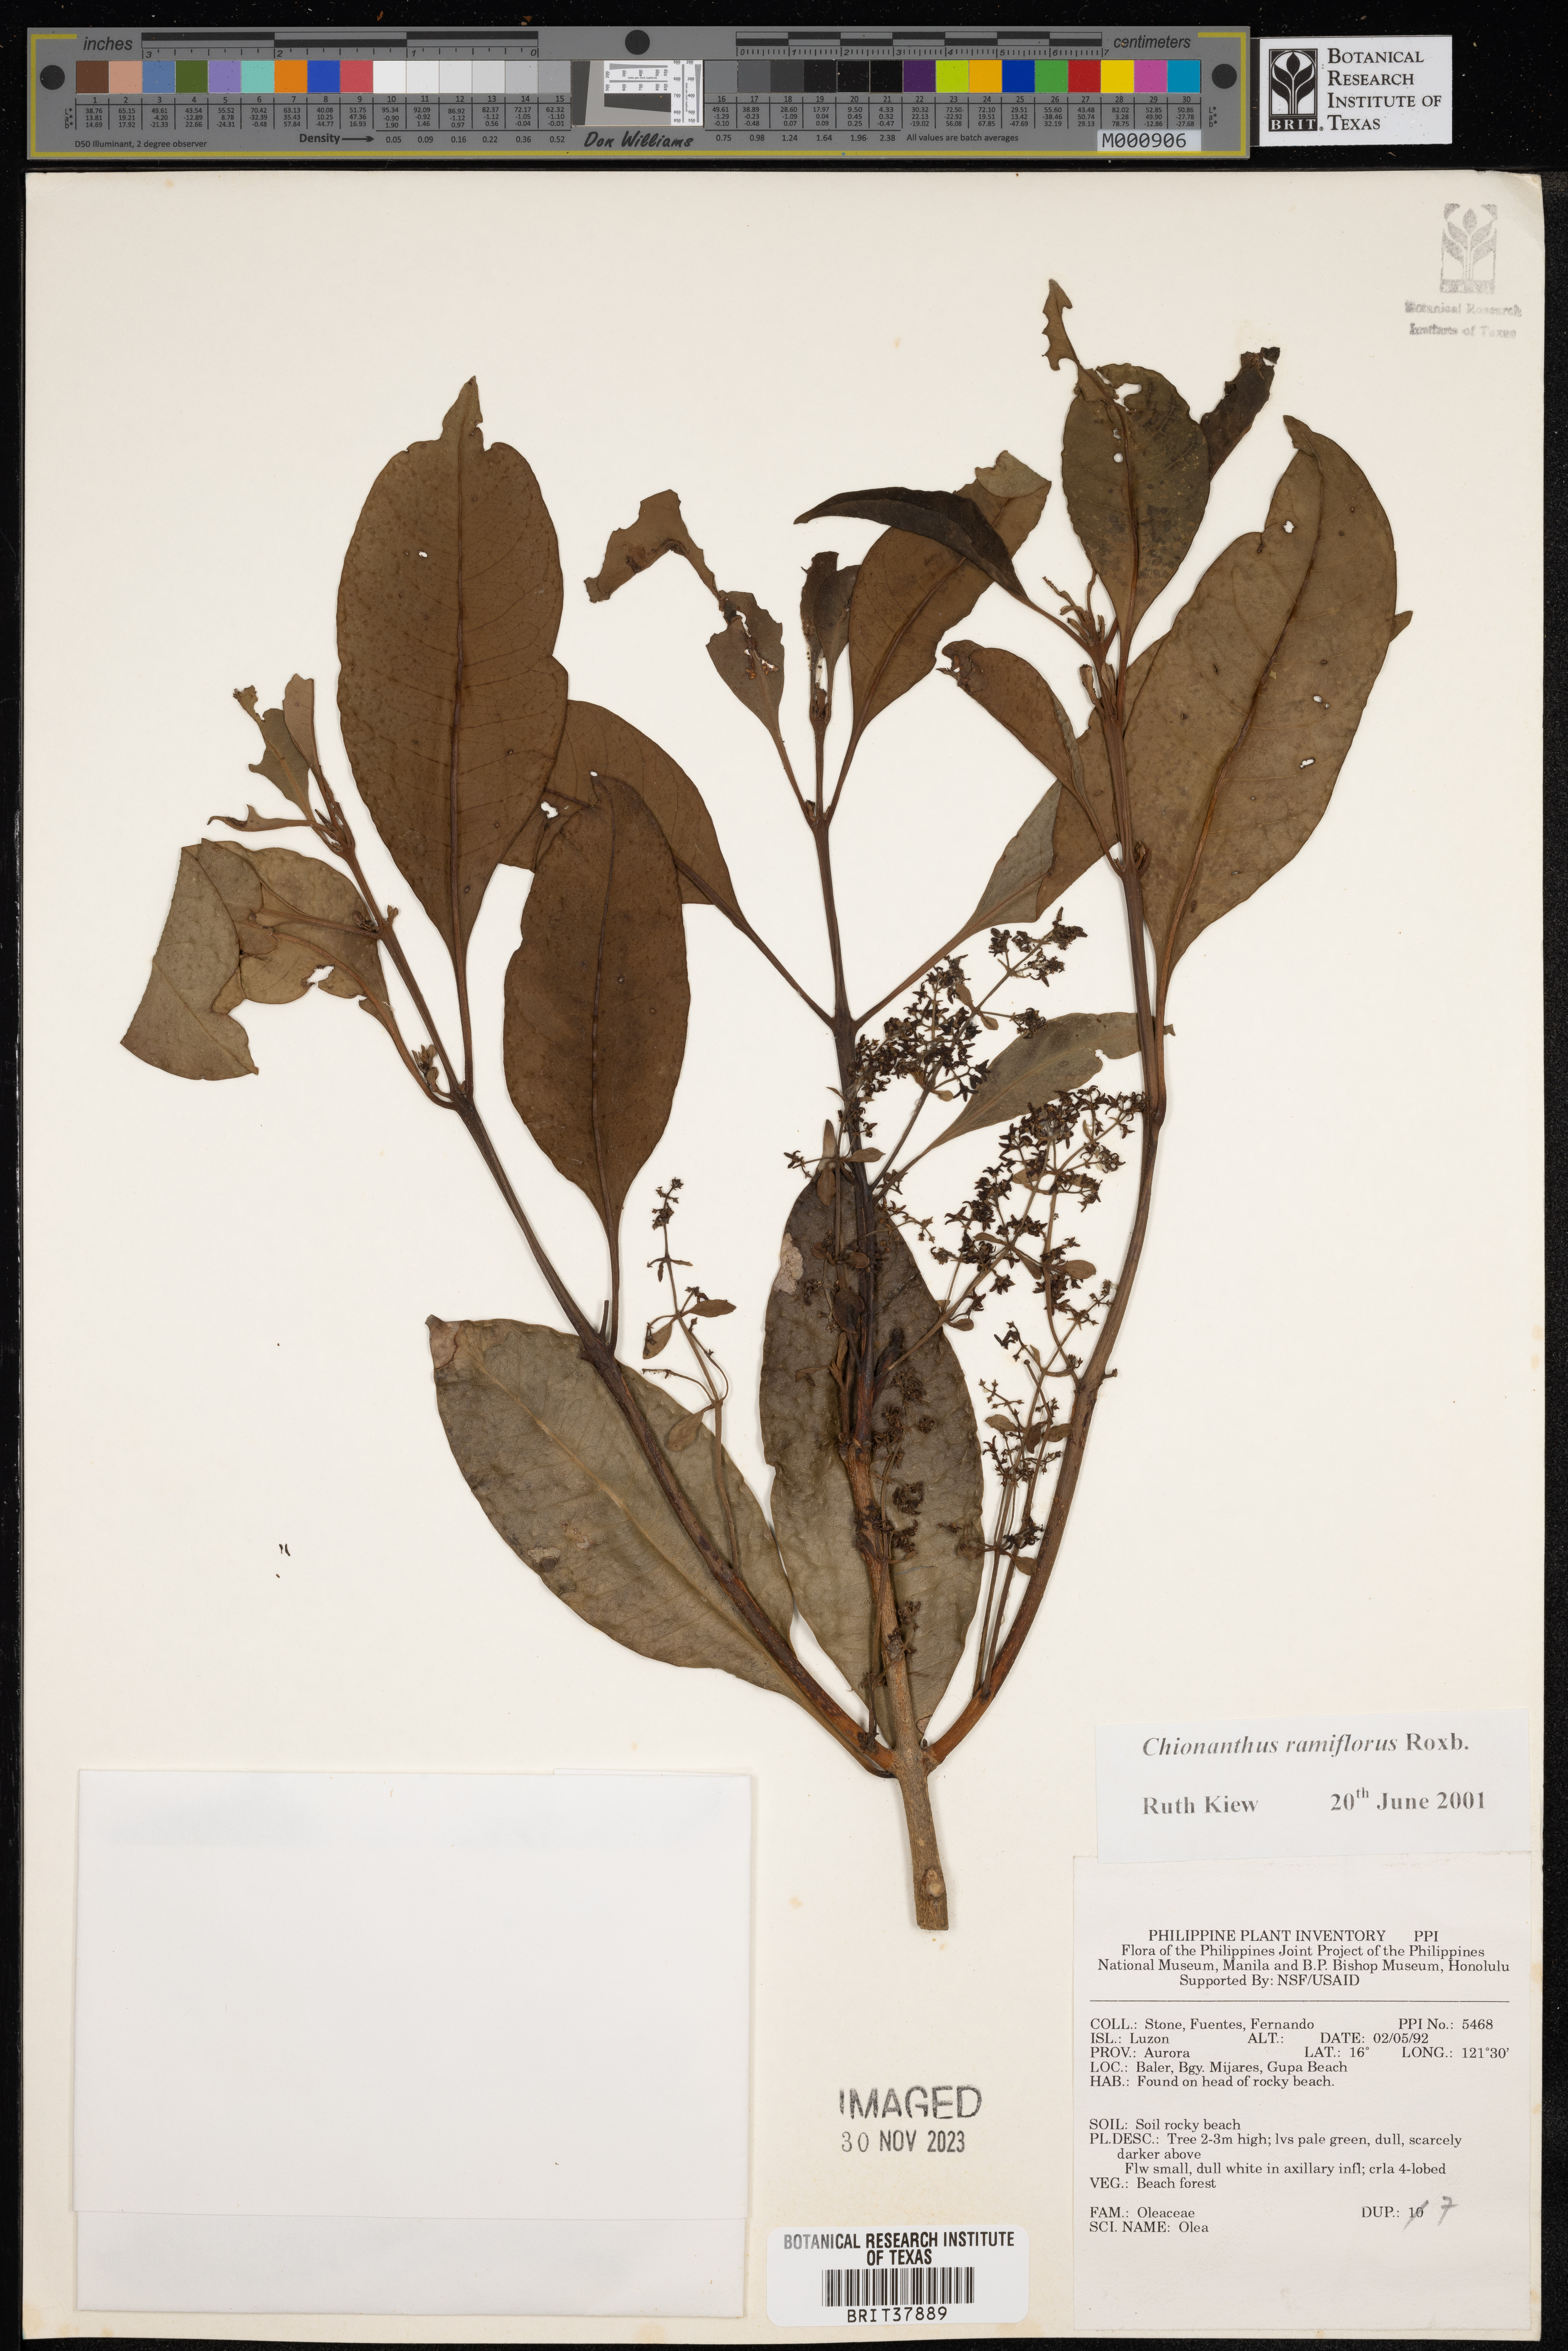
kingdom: Plantae
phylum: Tracheophyta
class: Magnoliopsida
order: Lamiales
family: Oleaceae
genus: Chionanthus
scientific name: Chionanthus ramiflorus
